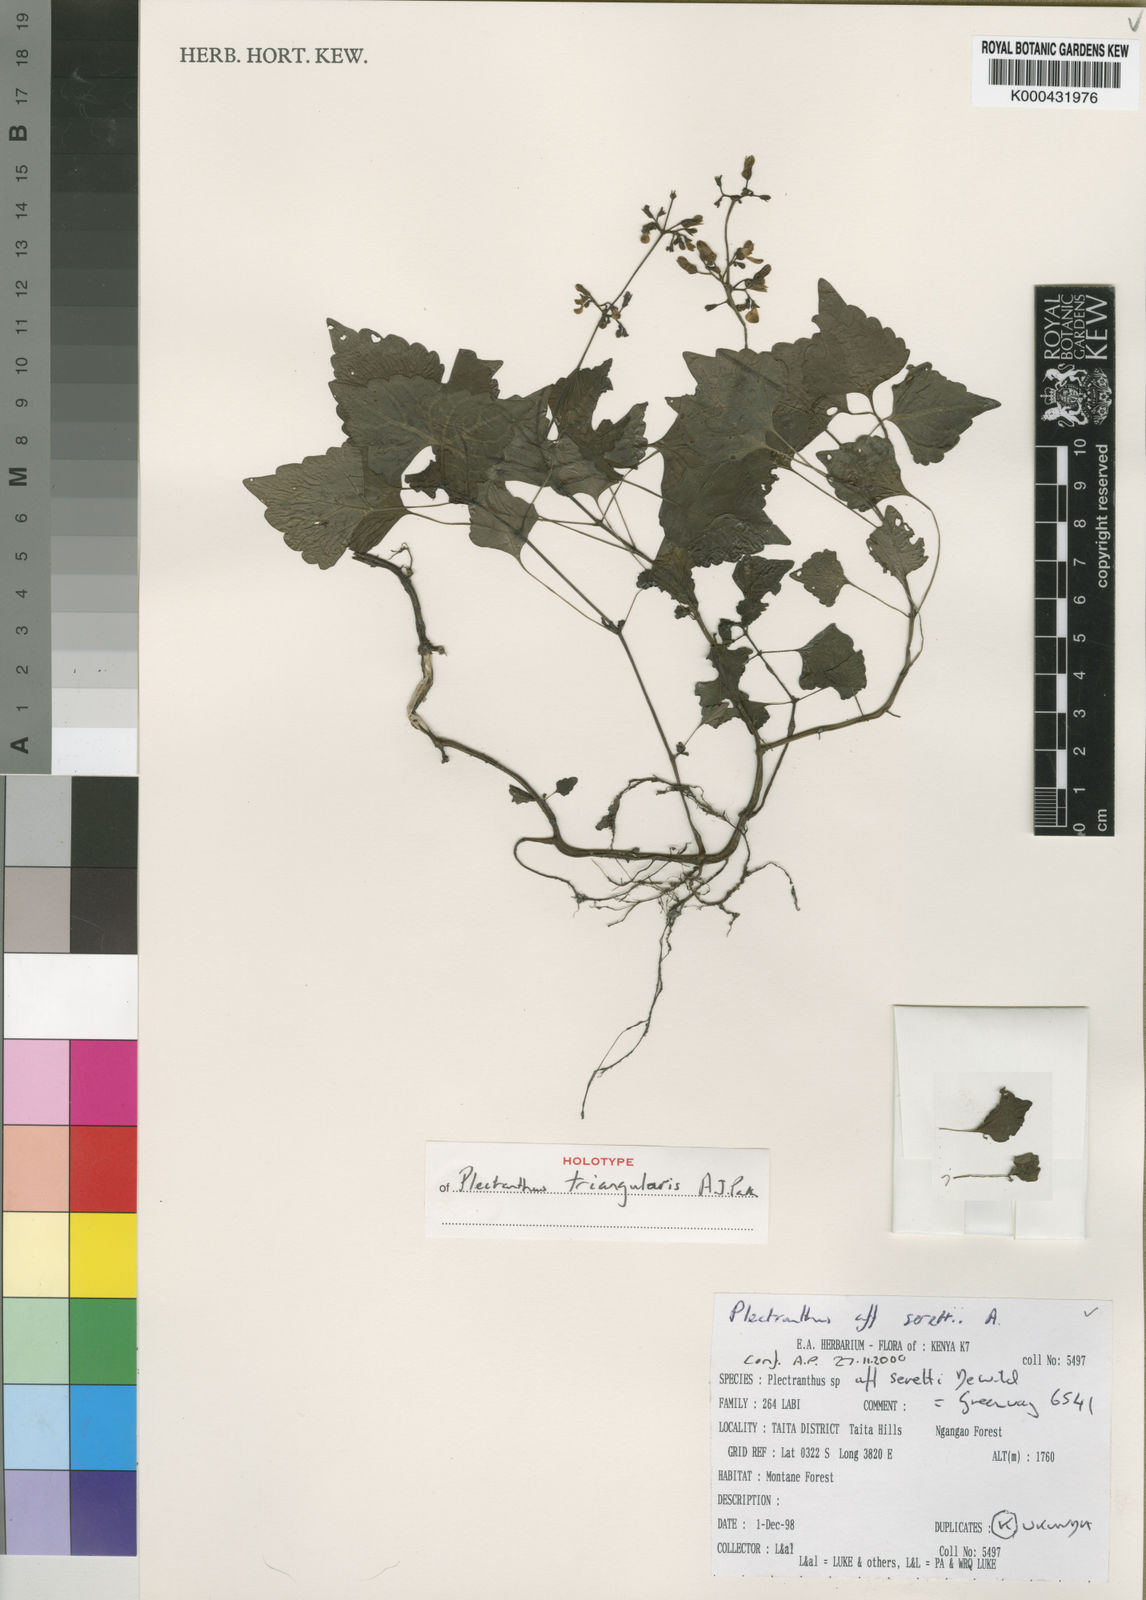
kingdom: Plantae
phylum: Tracheophyta
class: Magnoliopsida
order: Lamiales
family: Lamiaceae
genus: Coleus
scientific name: Coleus triangularis
